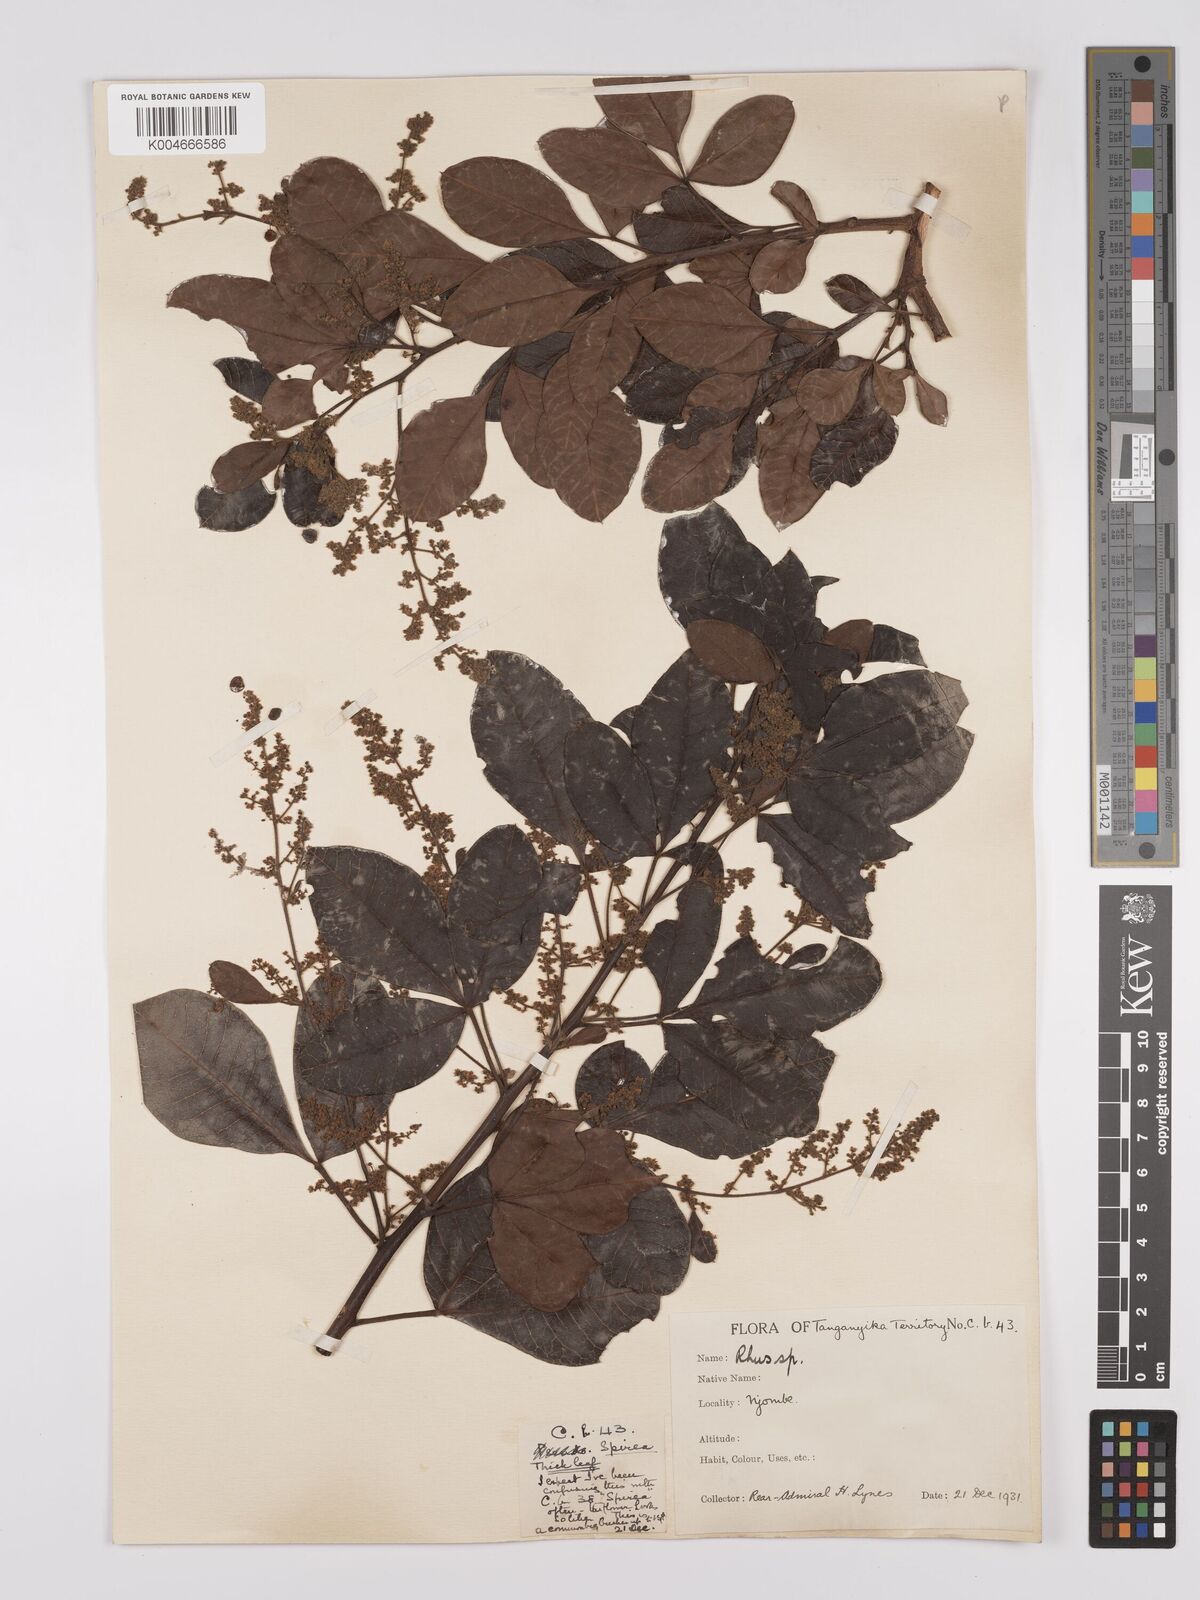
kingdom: Plantae
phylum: Tracheophyta
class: Magnoliopsida
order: Sapindales
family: Anacardiaceae
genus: Searsia
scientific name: Searsia longipes
